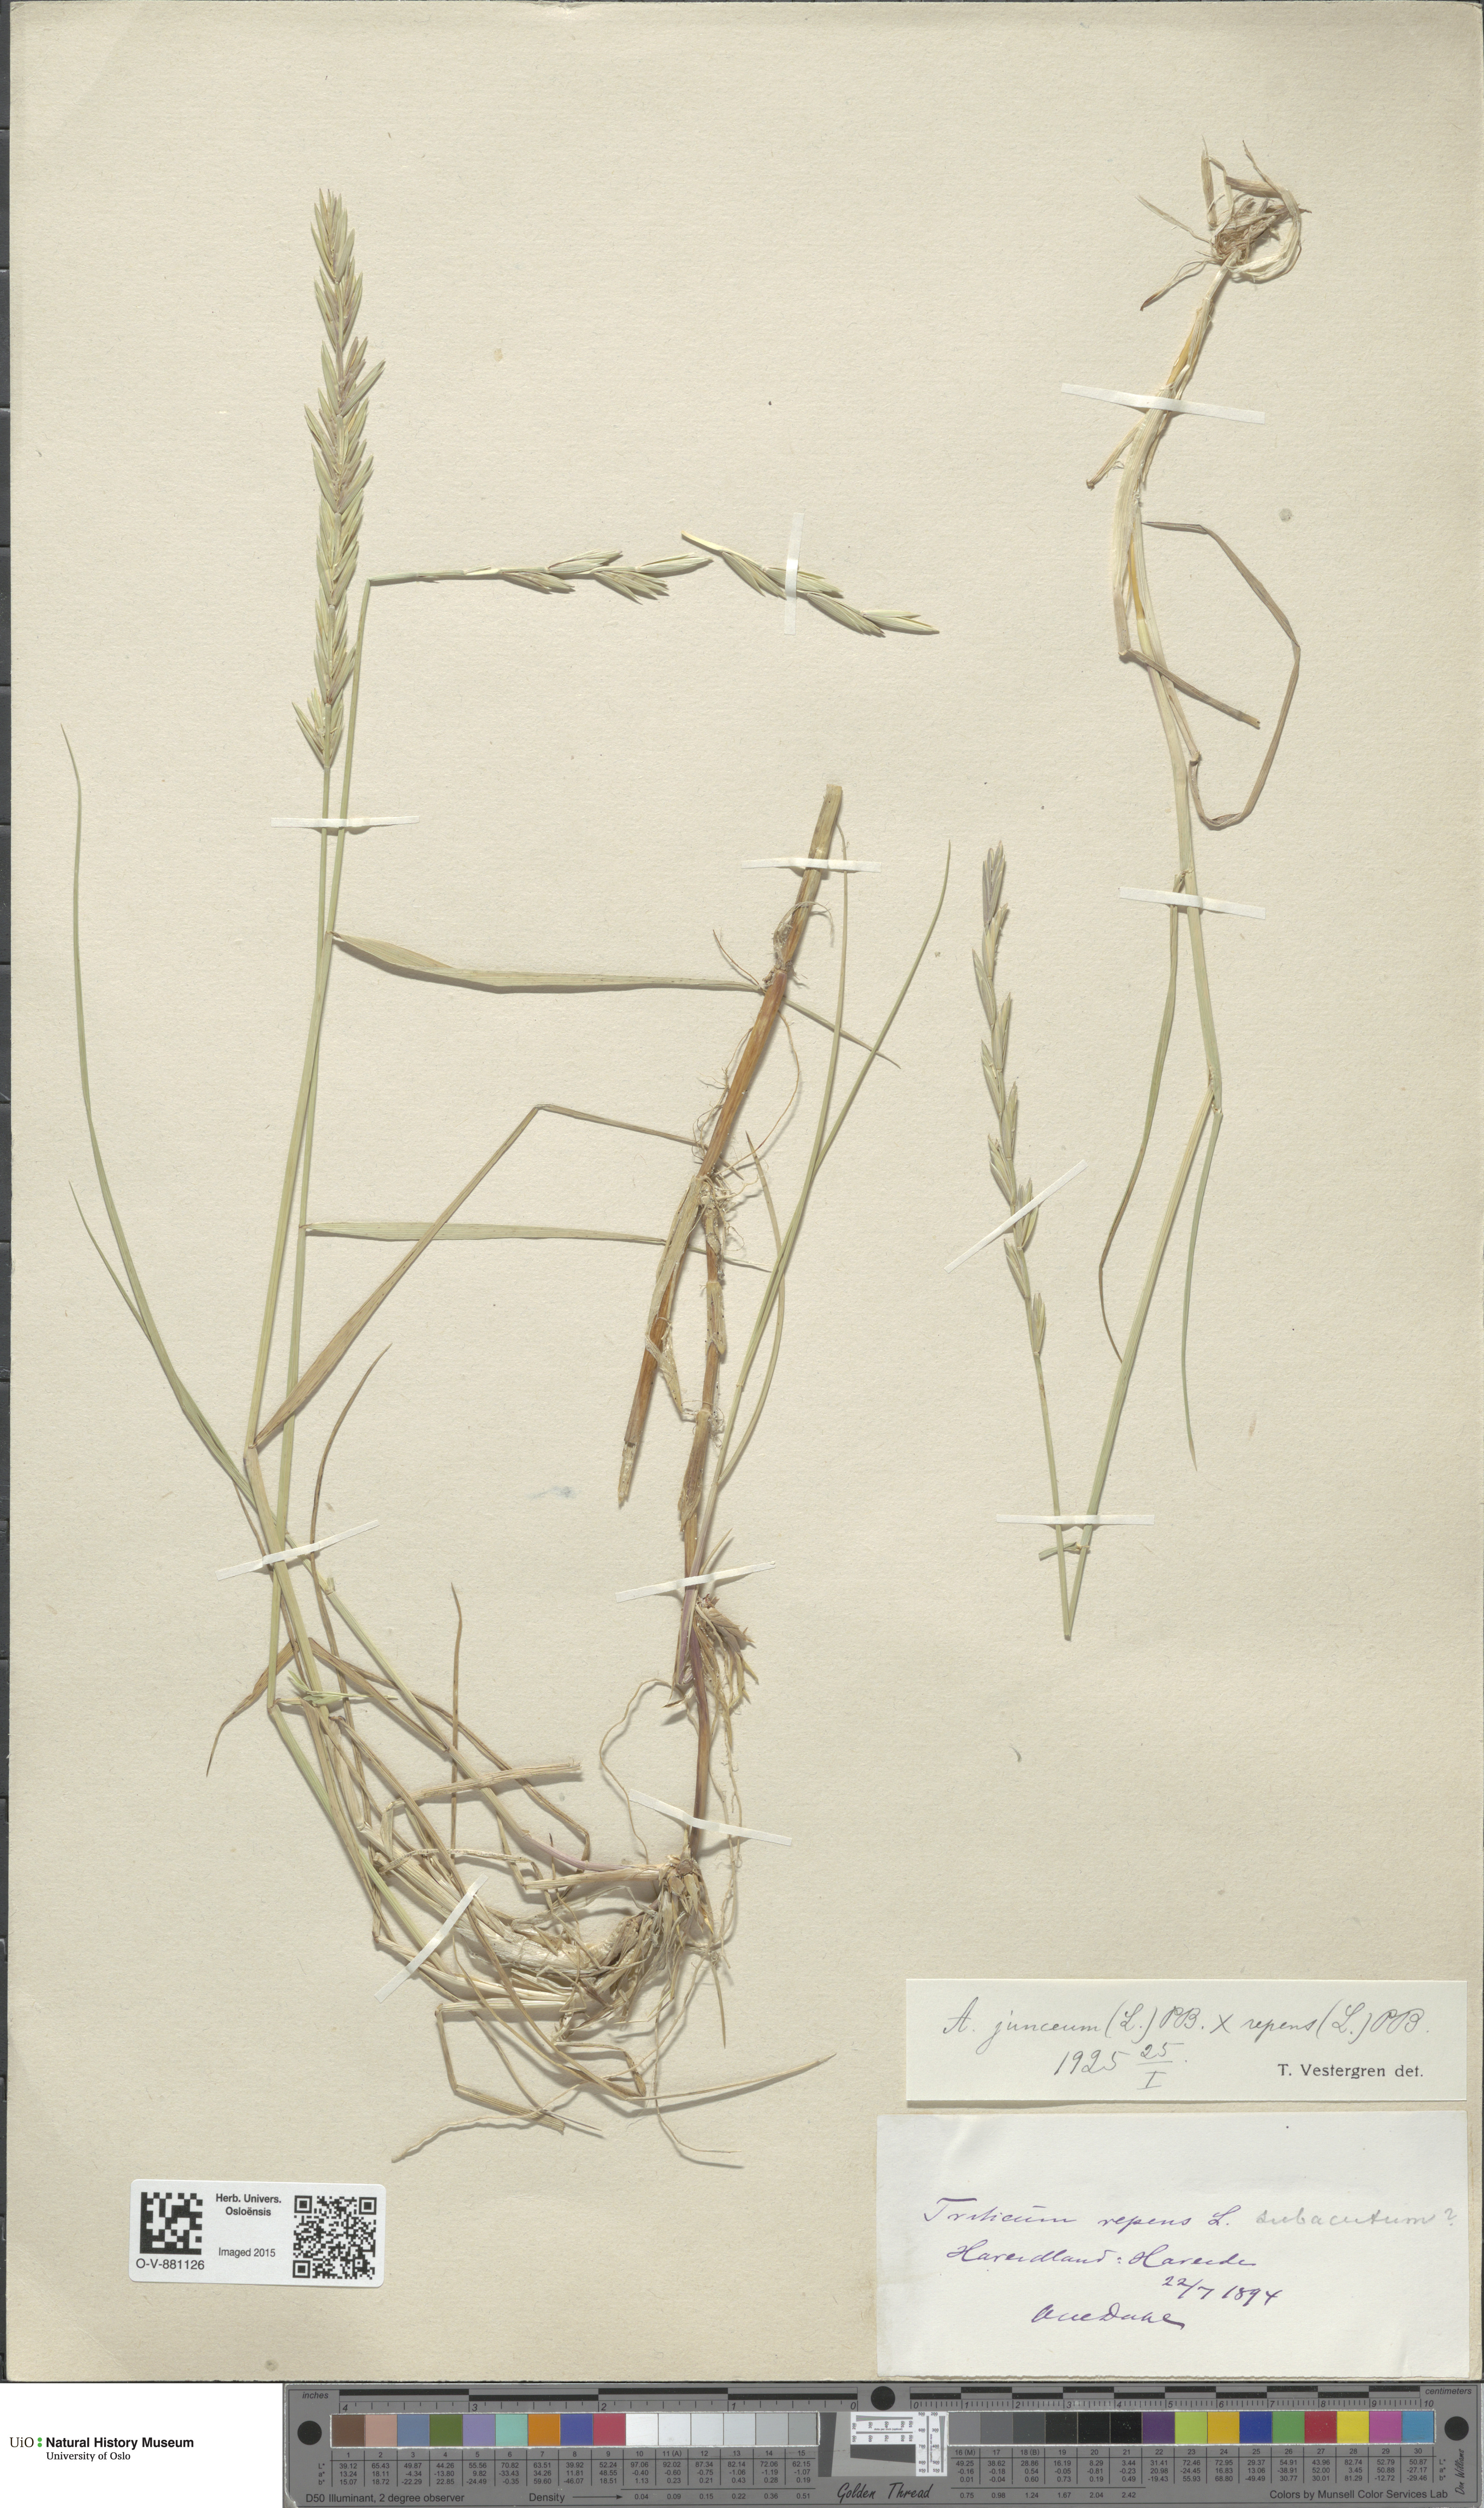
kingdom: Plantae
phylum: Tracheophyta
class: Liliopsida
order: Poales
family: Poaceae
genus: Elymus
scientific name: Elymus
